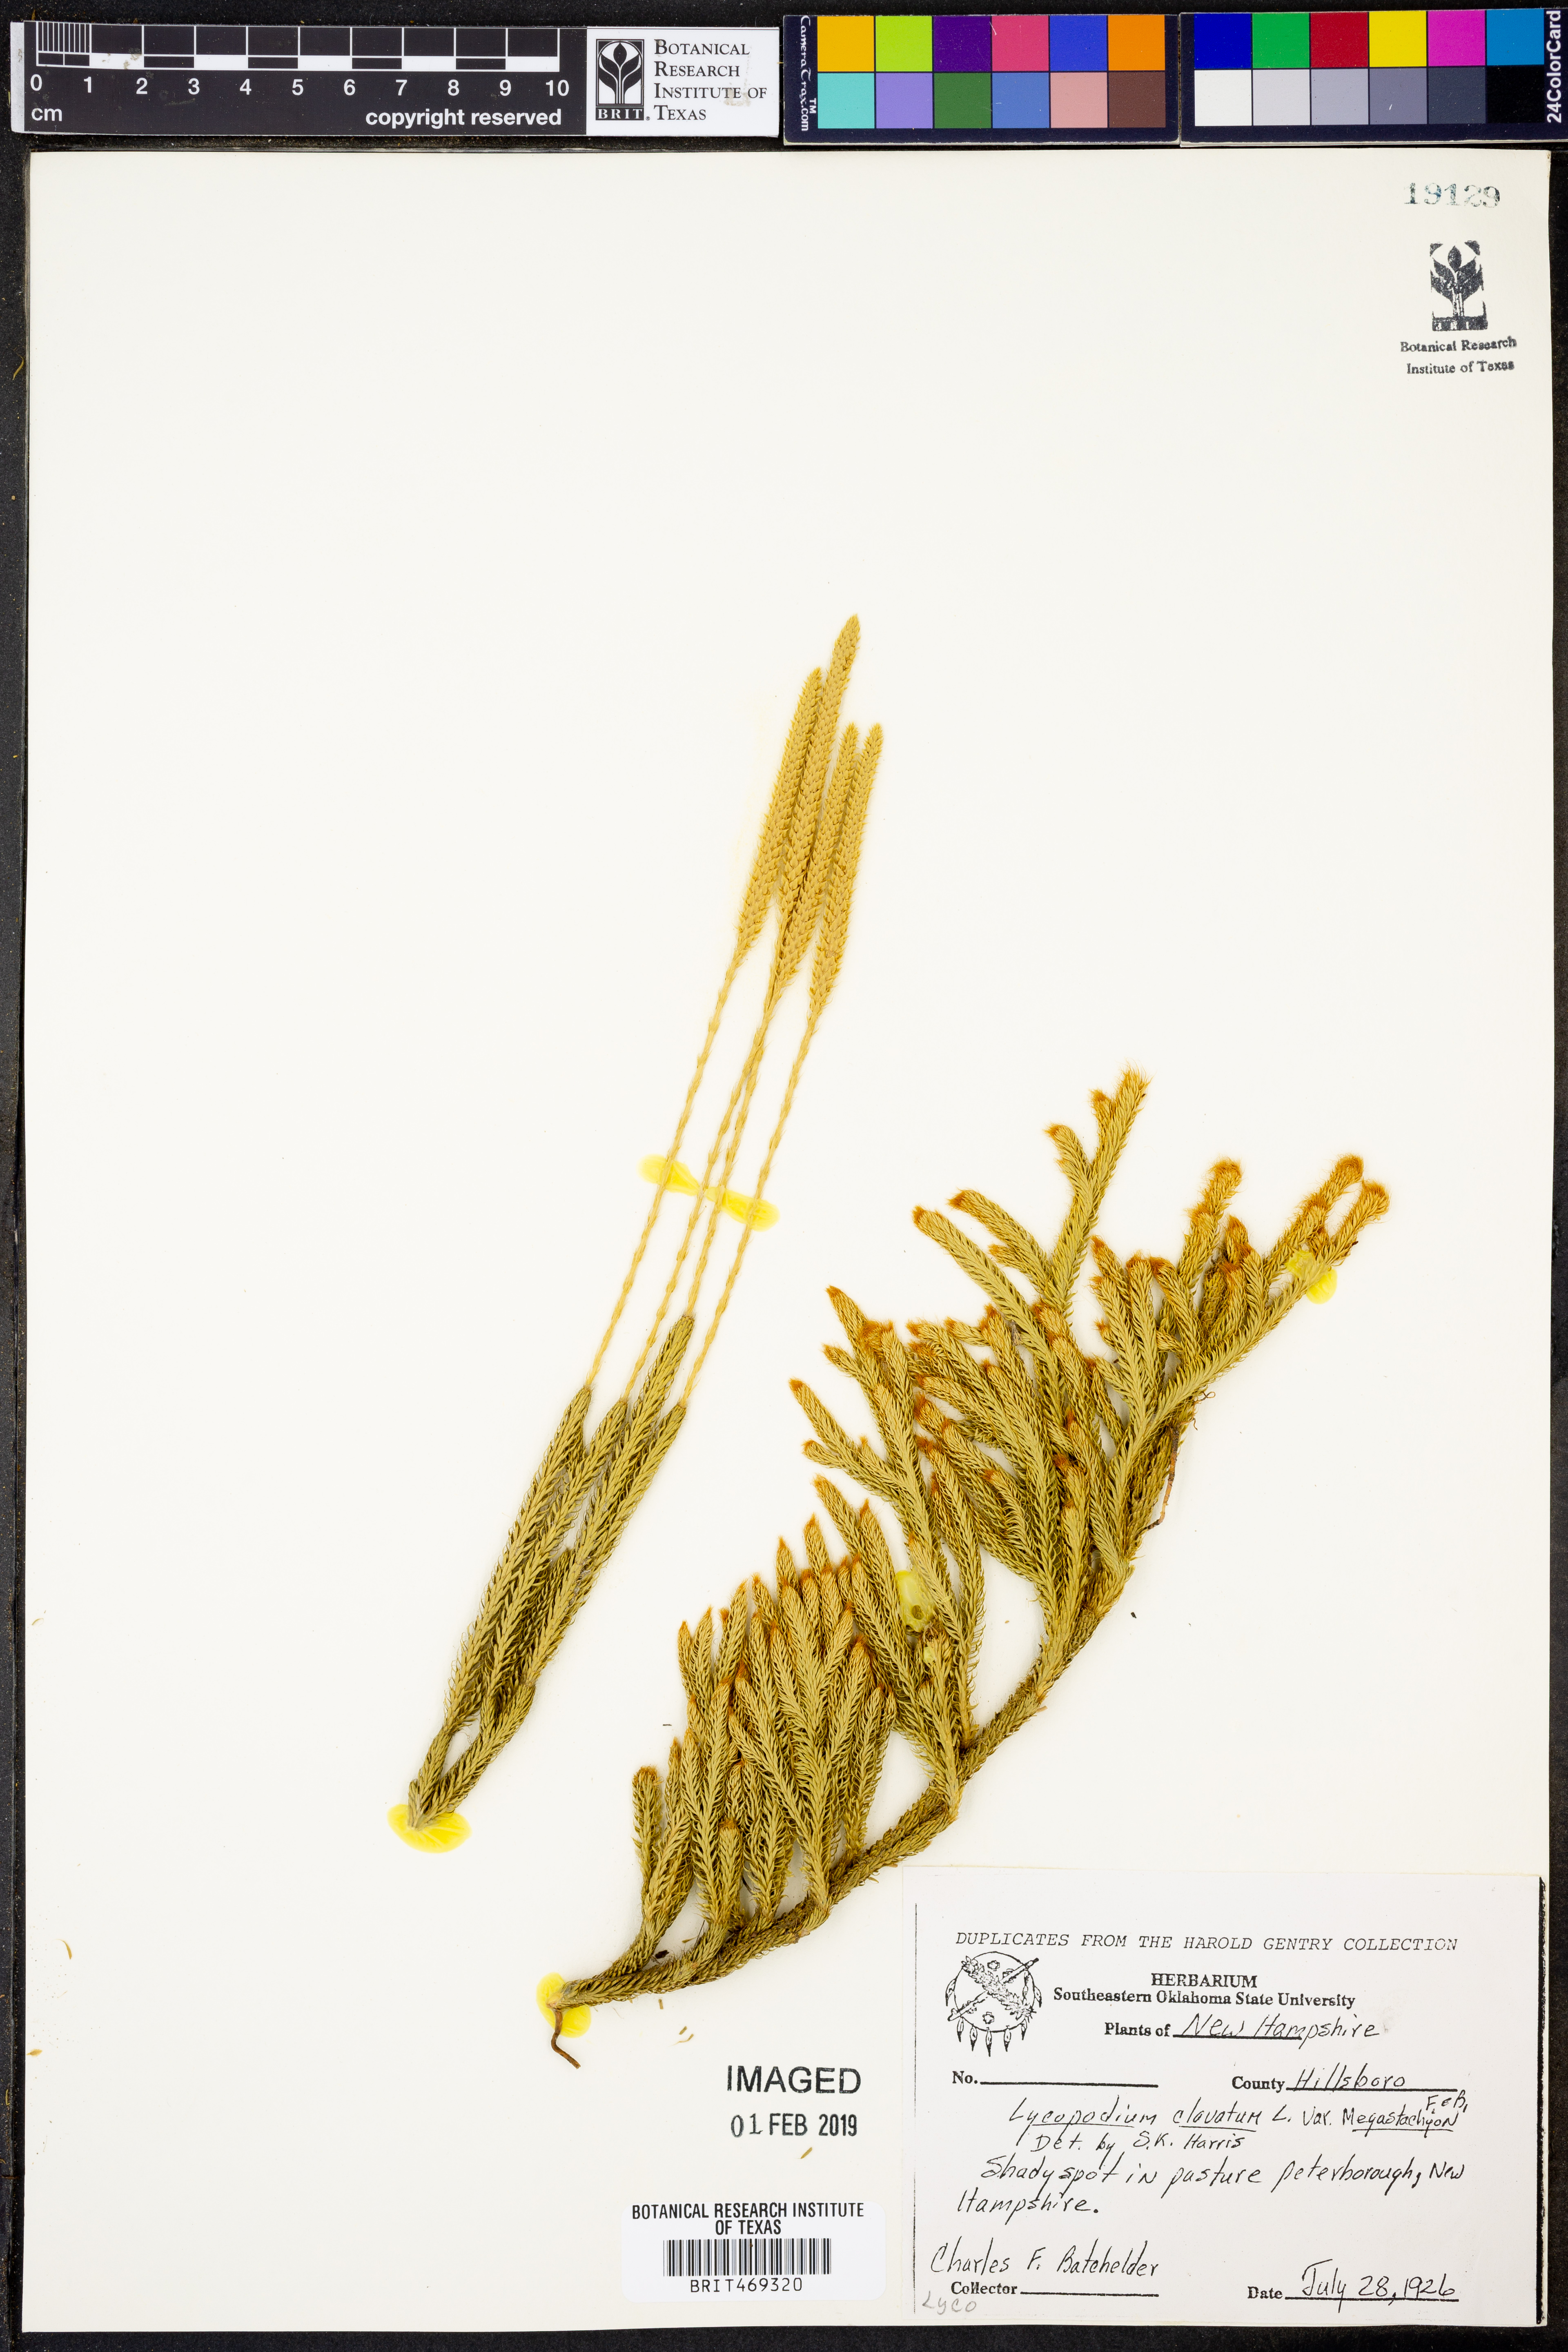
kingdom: Plantae
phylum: Tracheophyta
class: Lycopodiopsida
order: Lycopodiales
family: Lycopodiaceae
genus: Lycopodium
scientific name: Lycopodium lagopus
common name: One-cone clubmoss
